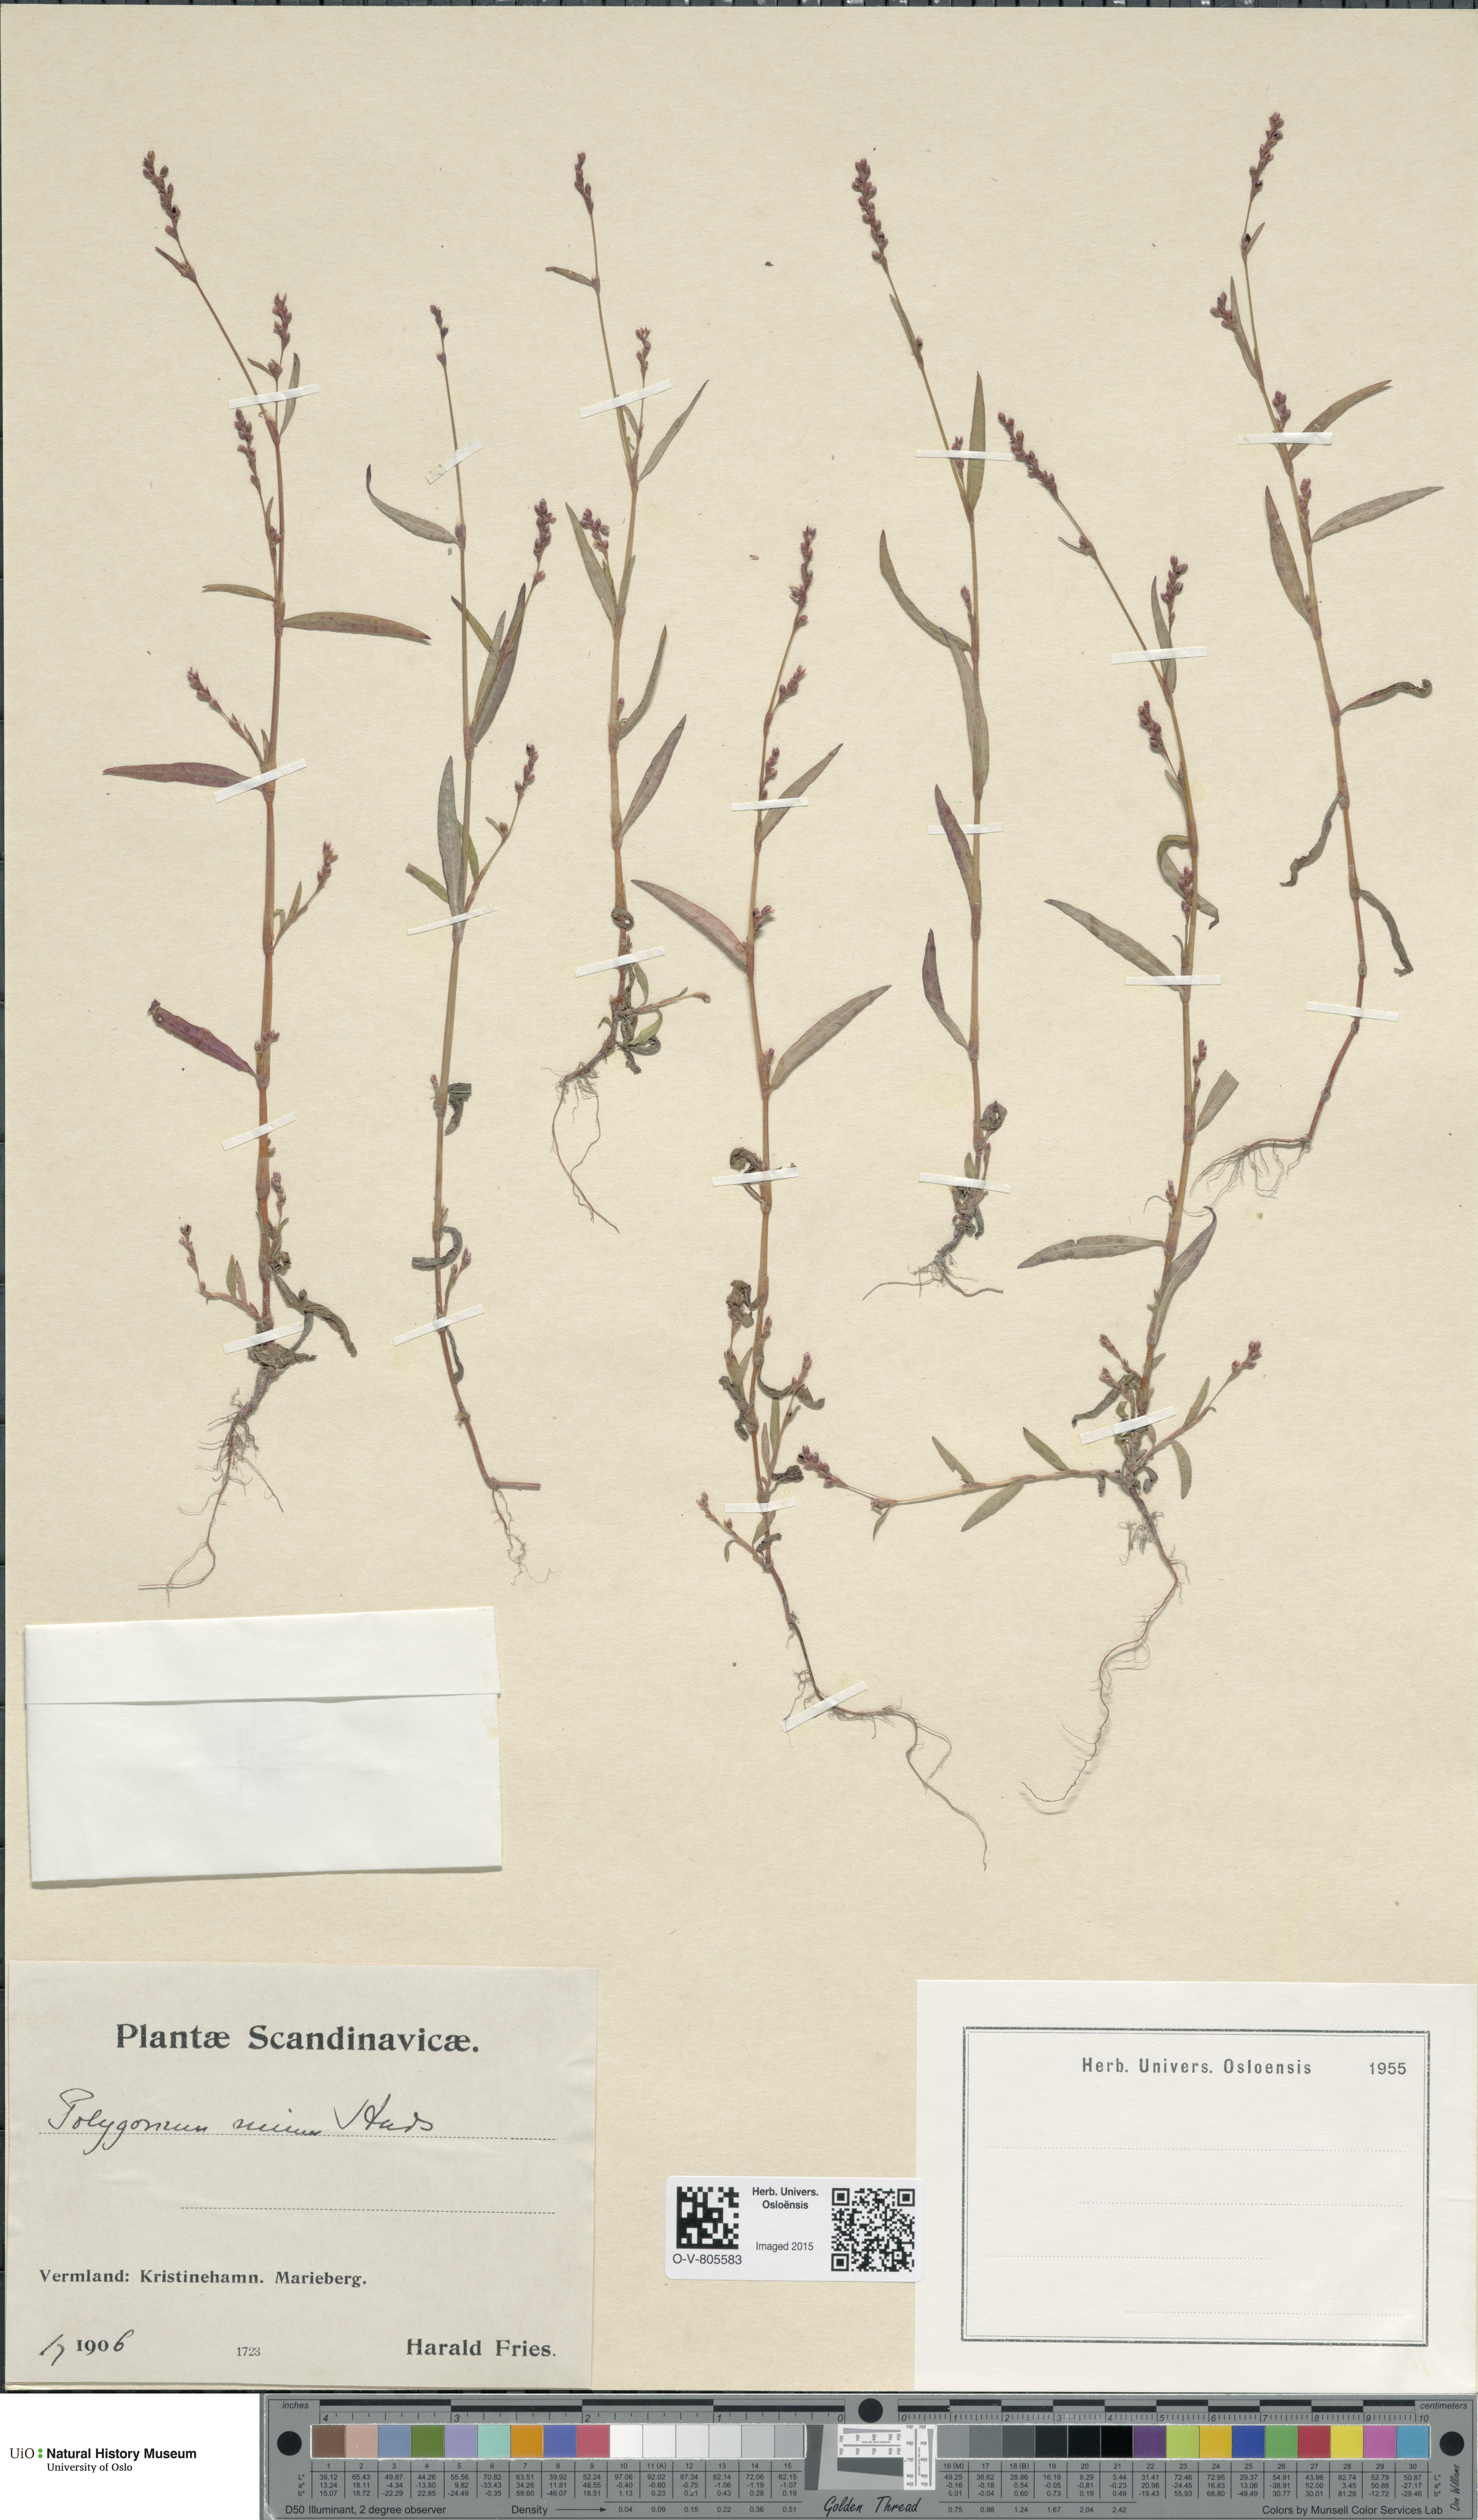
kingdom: Plantae
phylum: Tracheophyta
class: Magnoliopsida
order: Caryophyllales
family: Polygonaceae
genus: Persicaria
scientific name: Persicaria minor
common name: Small water-pepper
